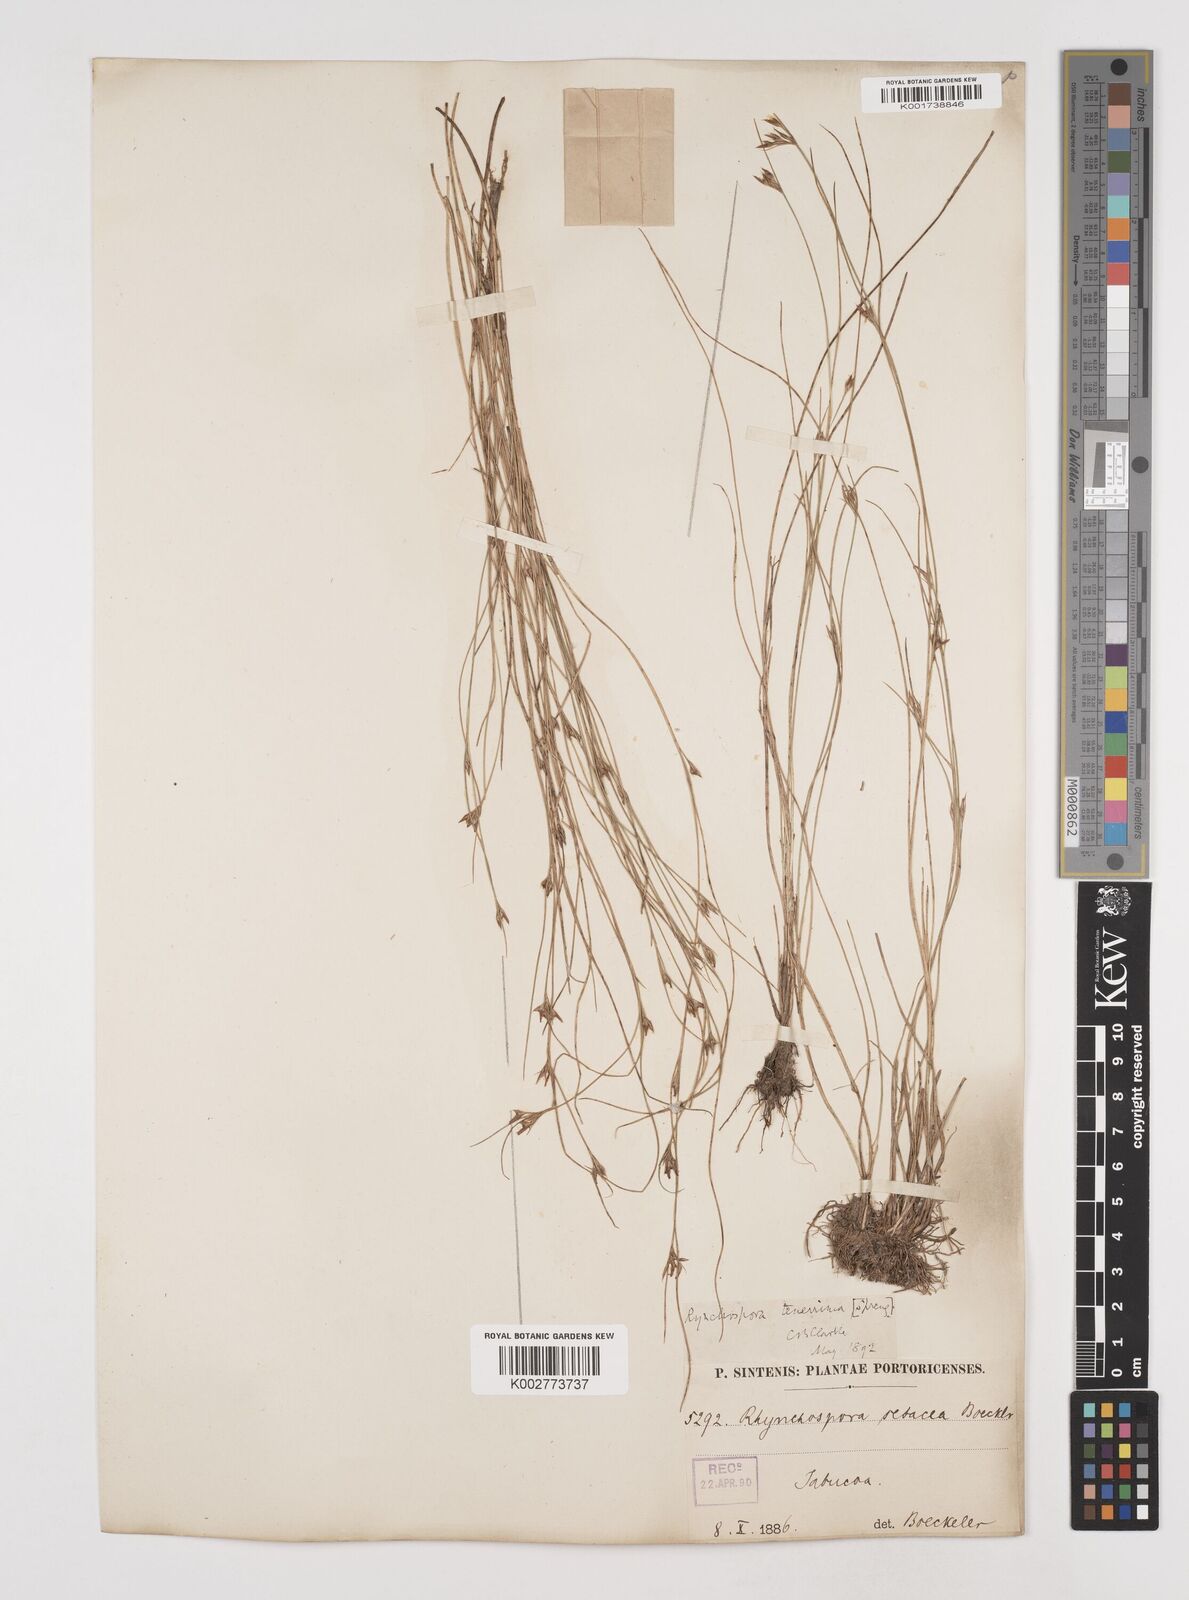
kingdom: Plantae
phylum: Tracheophyta
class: Liliopsida
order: Poales
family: Cyperaceae
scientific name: Cyperaceae
